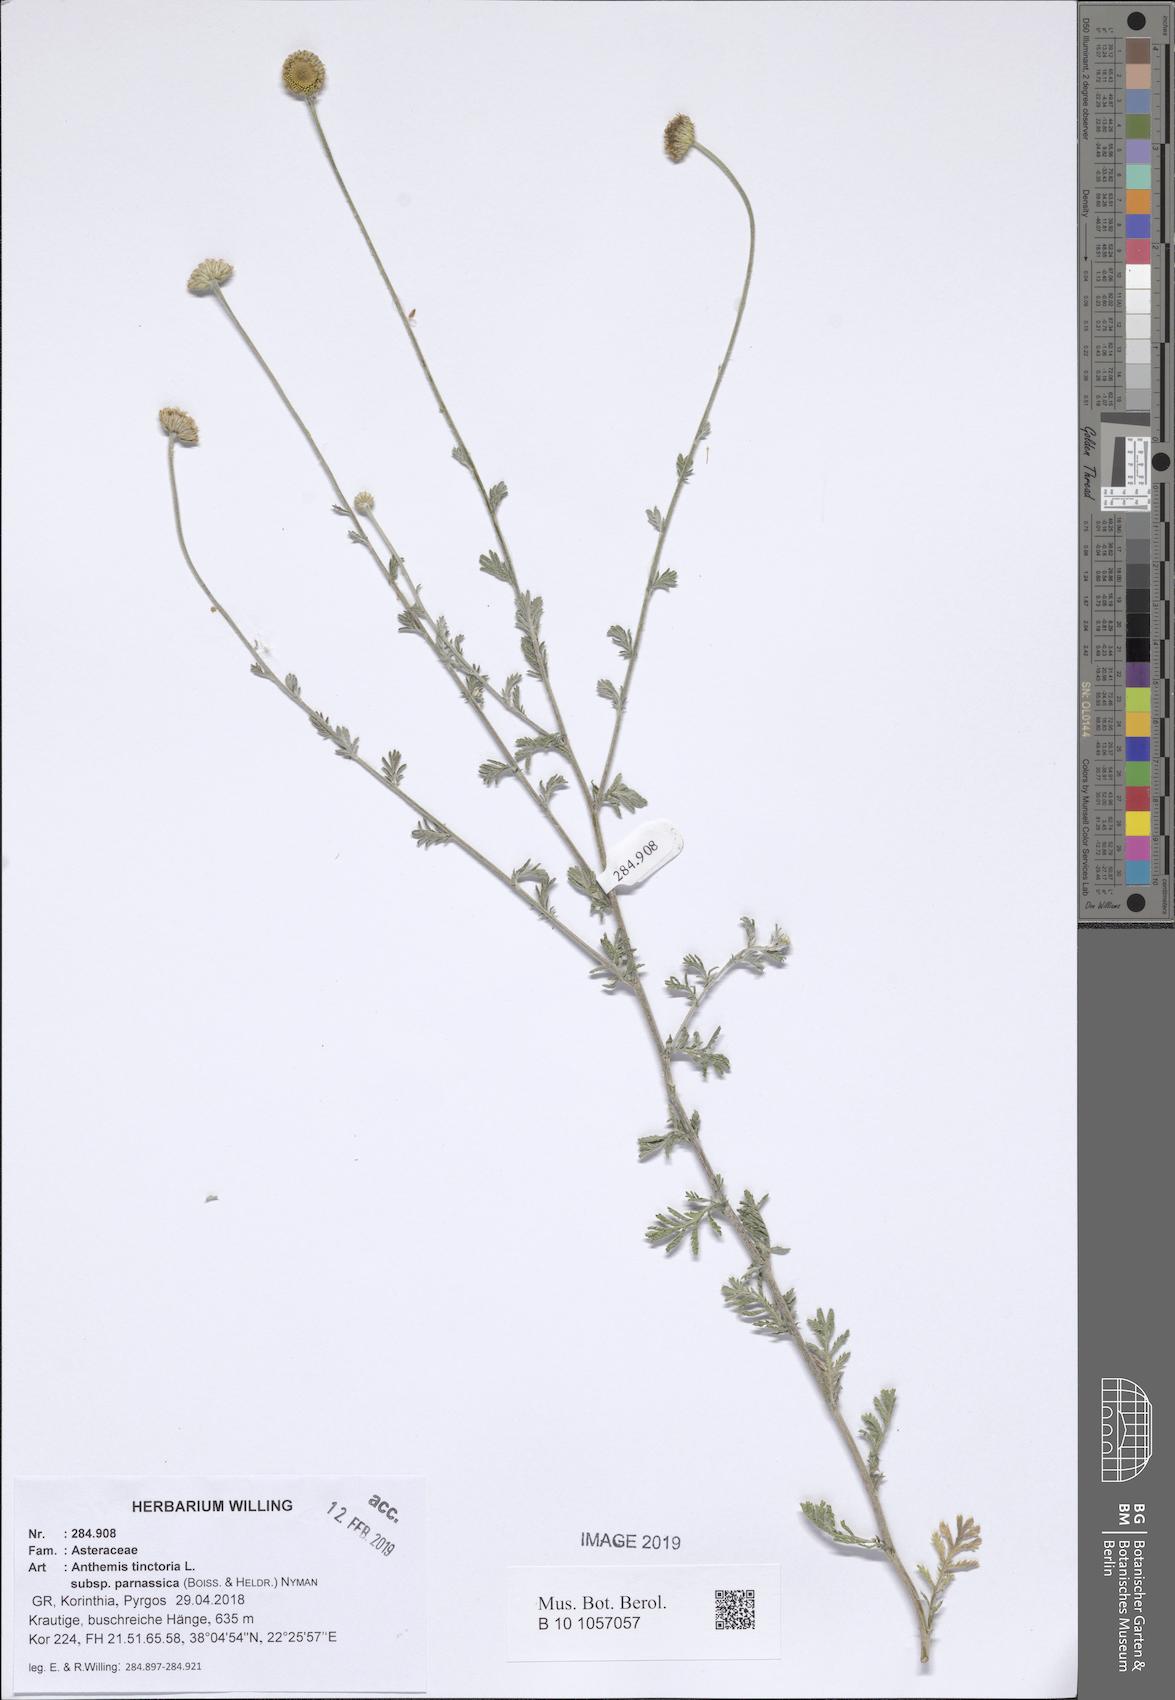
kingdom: Plantae
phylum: Tracheophyta
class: Magnoliopsida
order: Asterales
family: Asteraceae
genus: Cota
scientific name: Cota tinctoria
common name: Golden chamomile
